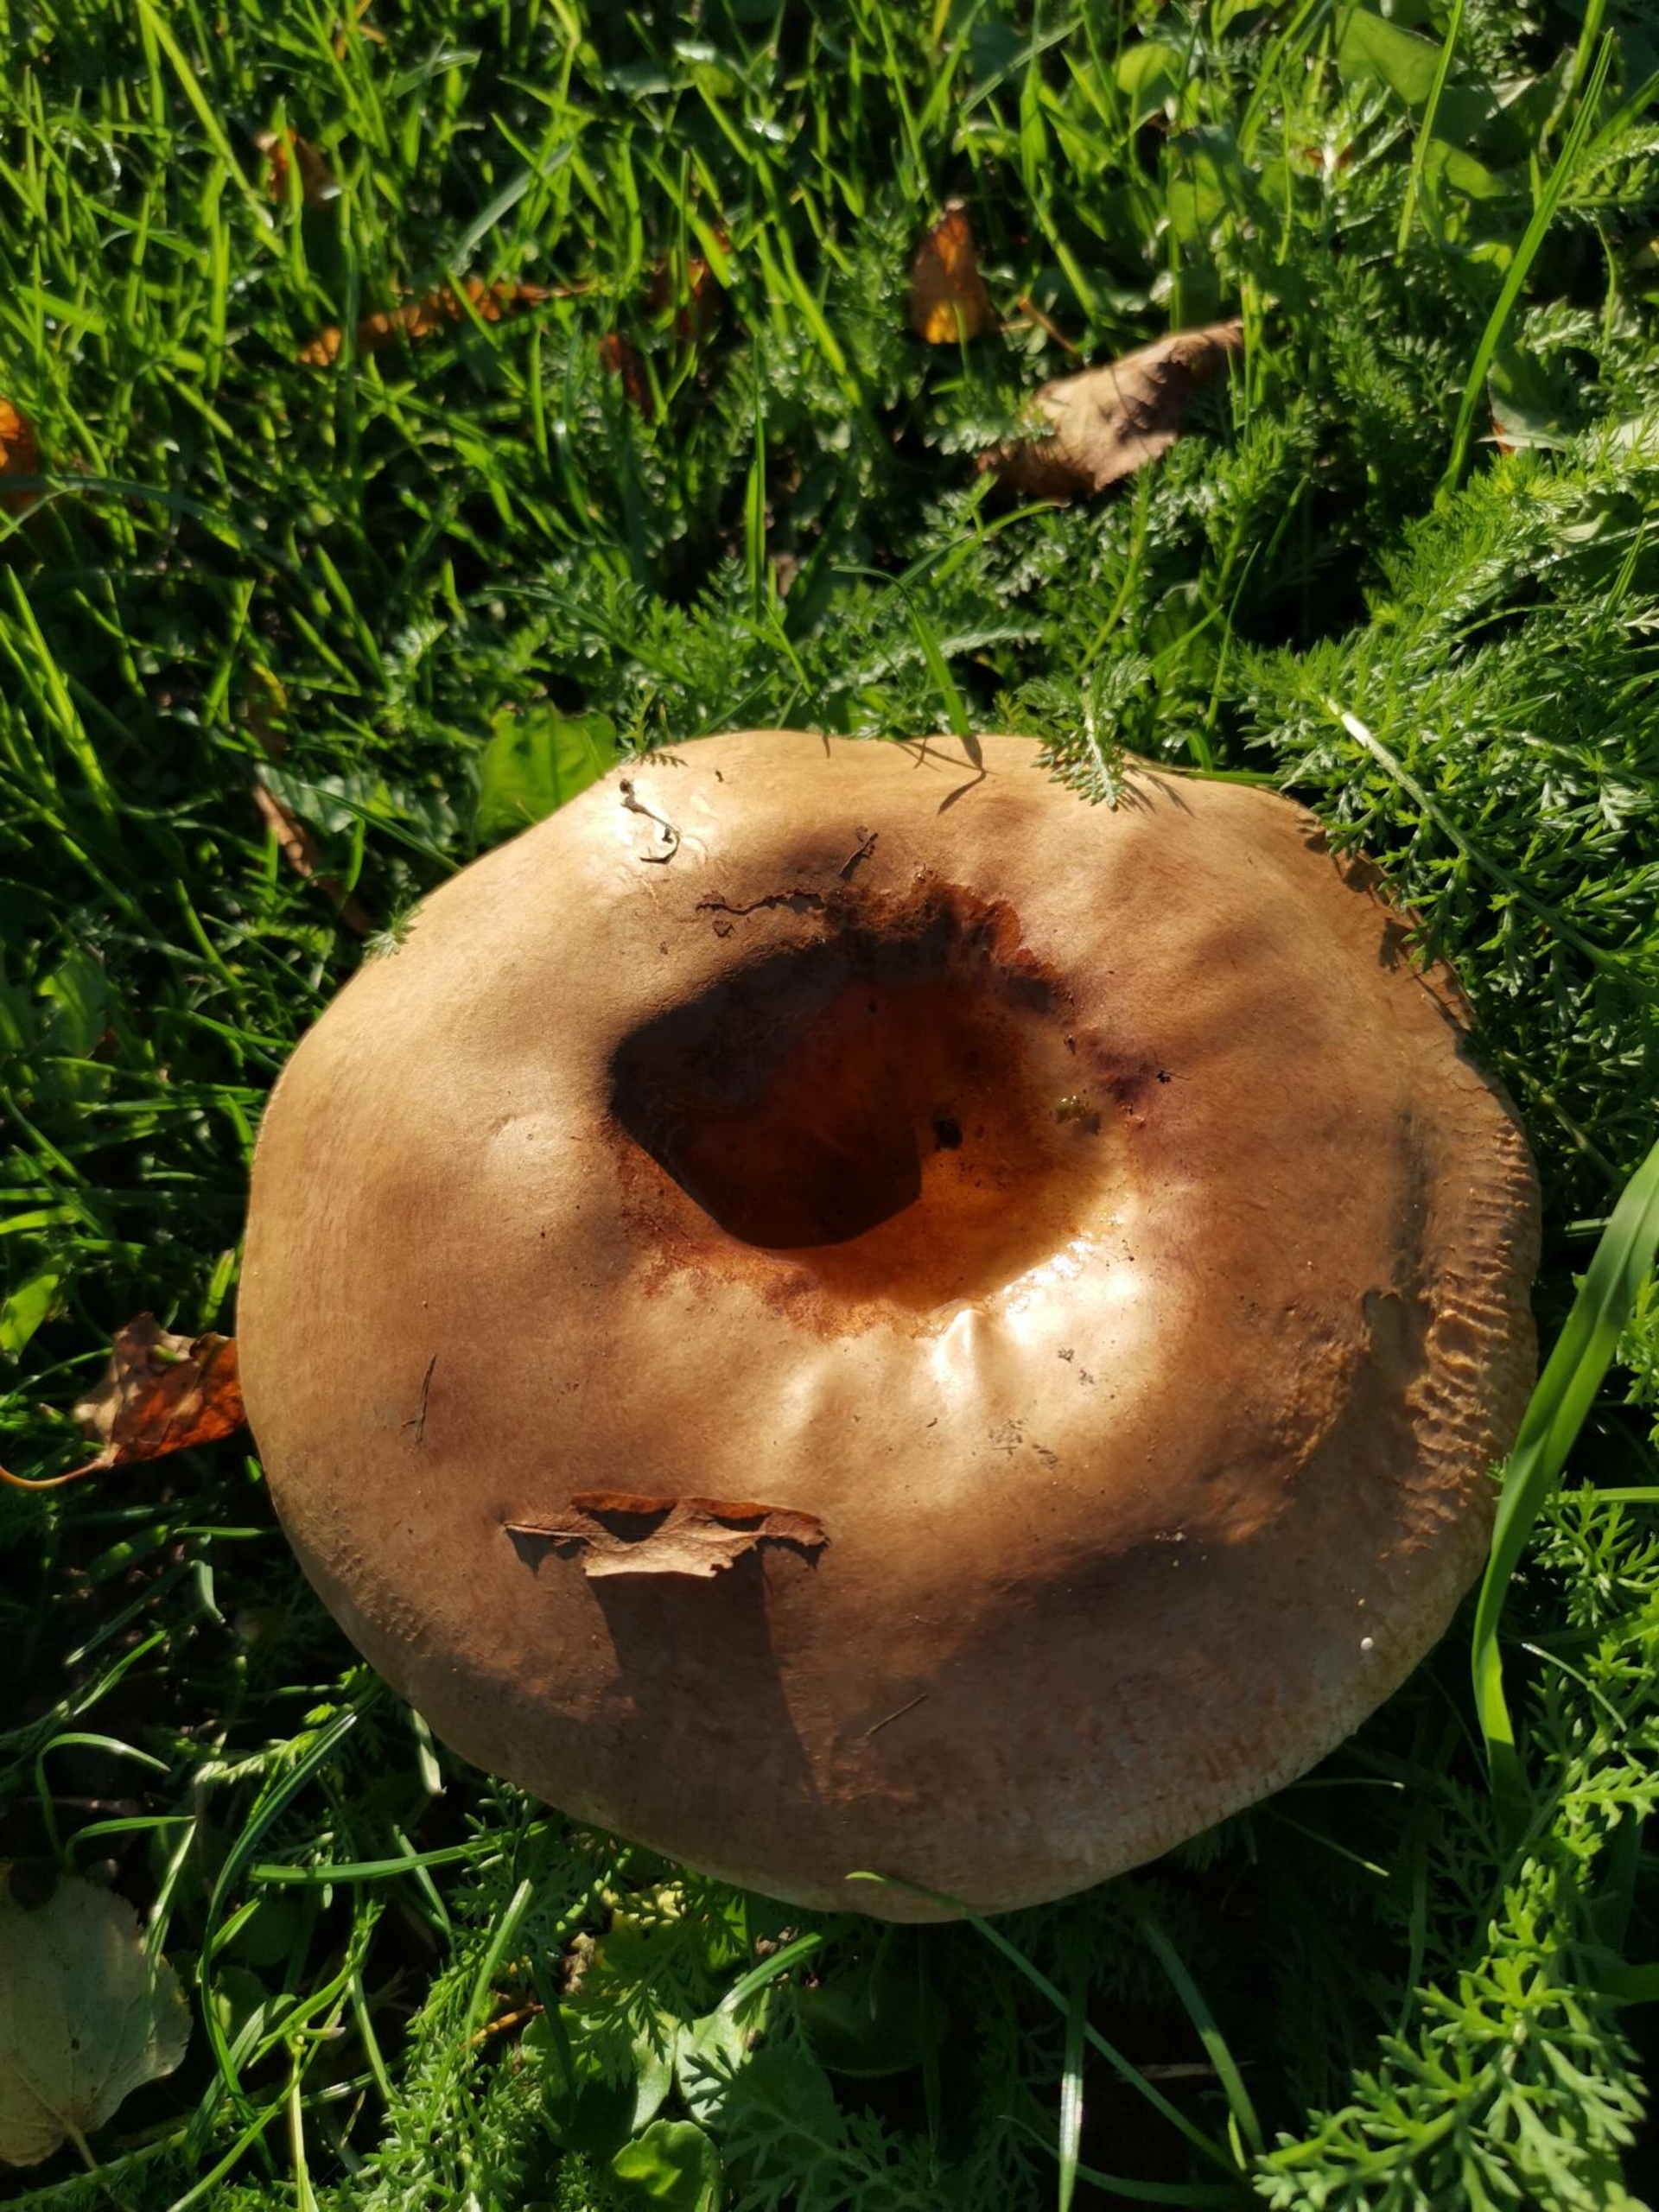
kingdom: Fungi
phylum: Basidiomycota
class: Agaricomycetes
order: Boletales
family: Paxillaceae
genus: Paxillus
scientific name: Paxillus
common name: Netbladhat
